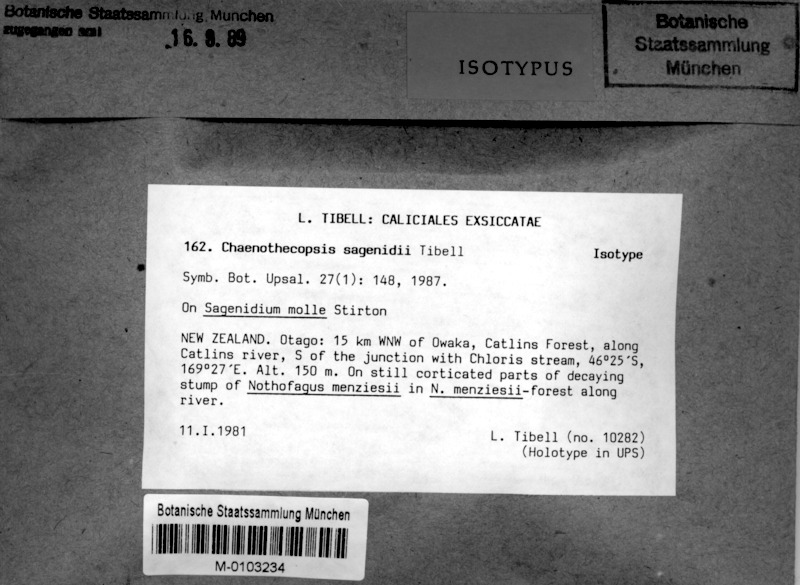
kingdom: Fungi
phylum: Ascomycota
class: Eurotiomycetes
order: Mycocaliciales
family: Mycocaliciaceae
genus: Chaenothecopsis
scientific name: Chaenothecopsis sagenidii
